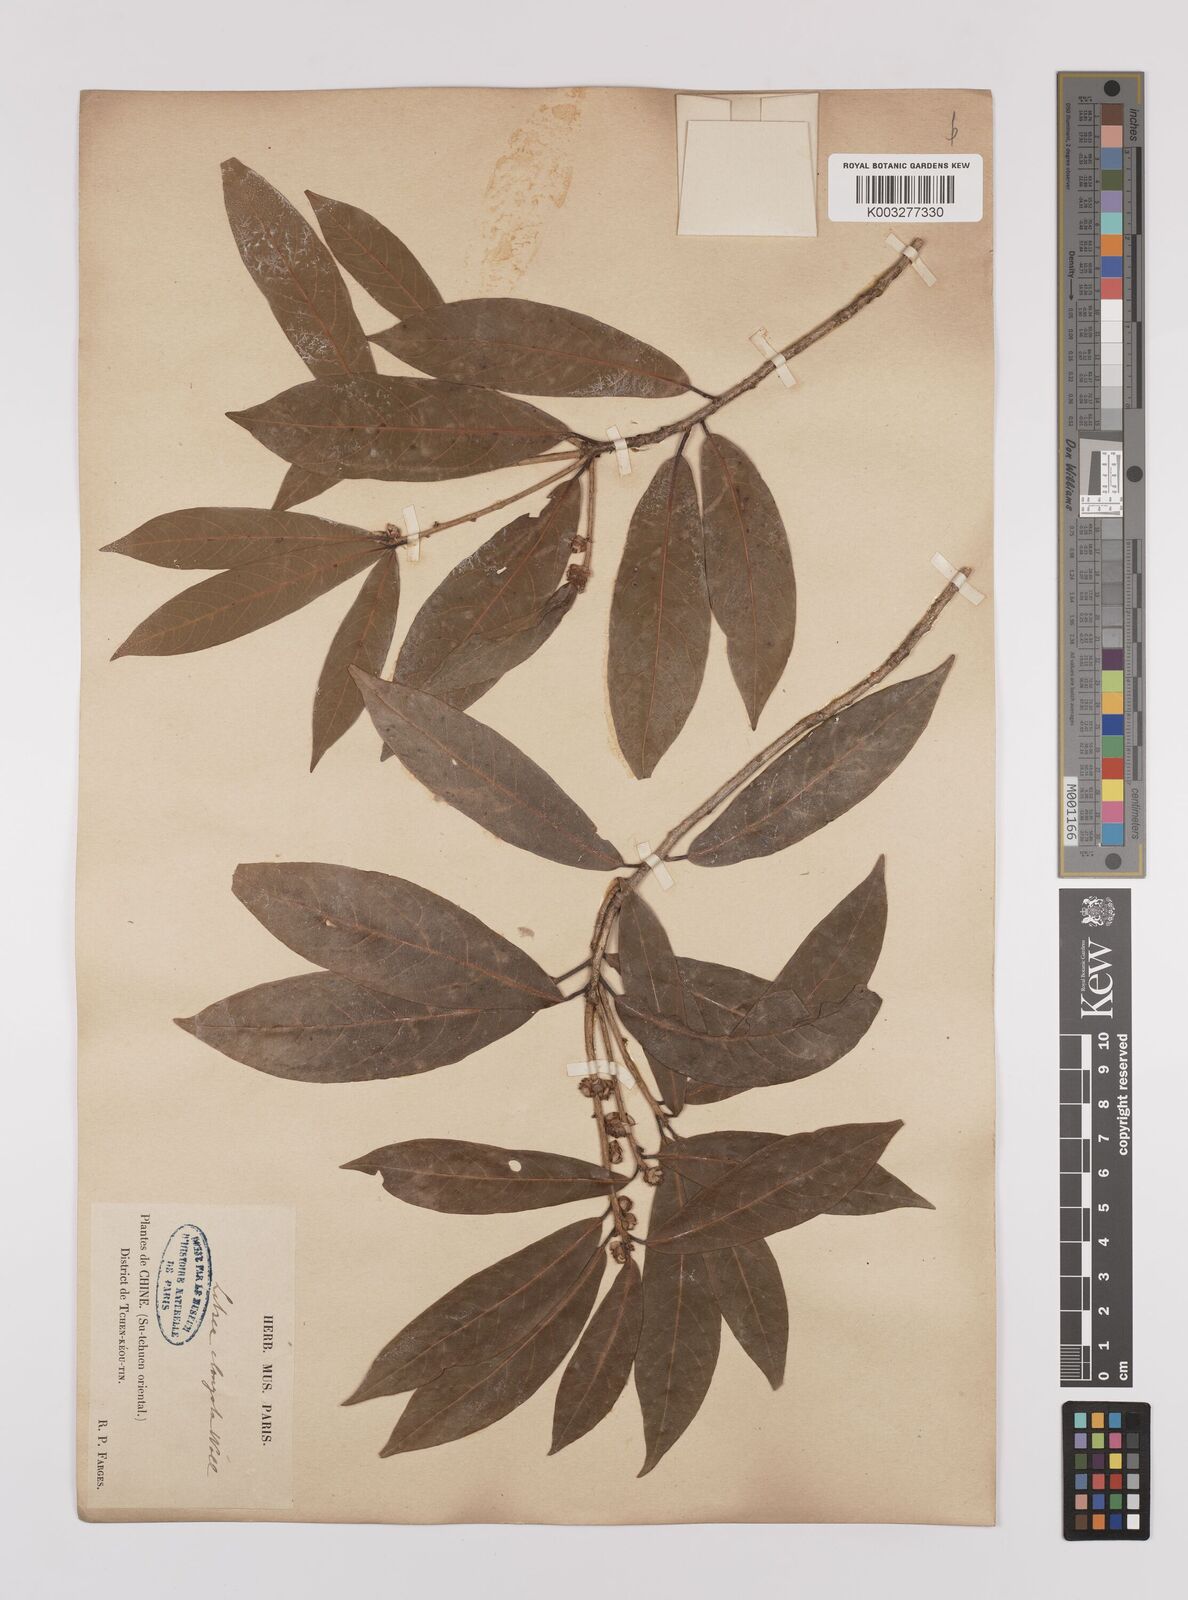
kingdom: Plantae
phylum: Tracheophyta
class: Magnoliopsida
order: Laurales
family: Lauraceae
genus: Litsea
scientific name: Litsea elongata
